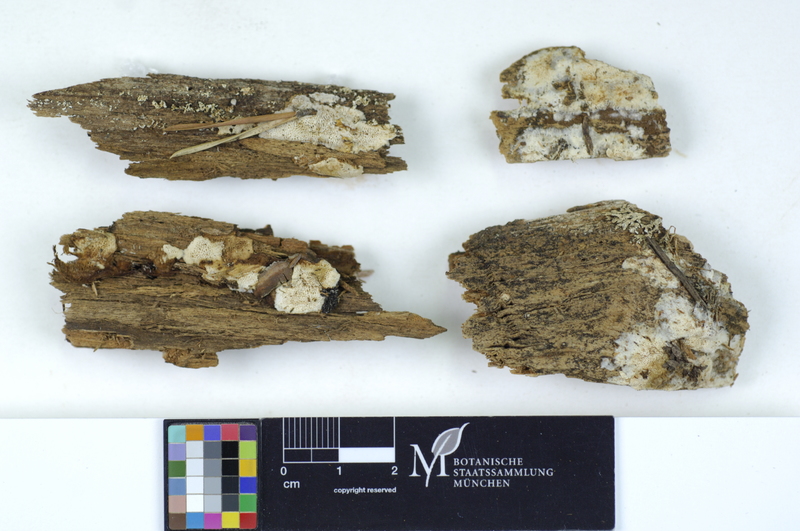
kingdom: Plantae
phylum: Tracheophyta
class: Pinopsida
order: Pinales
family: Pinaceae
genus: Pinus
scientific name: Pinus
